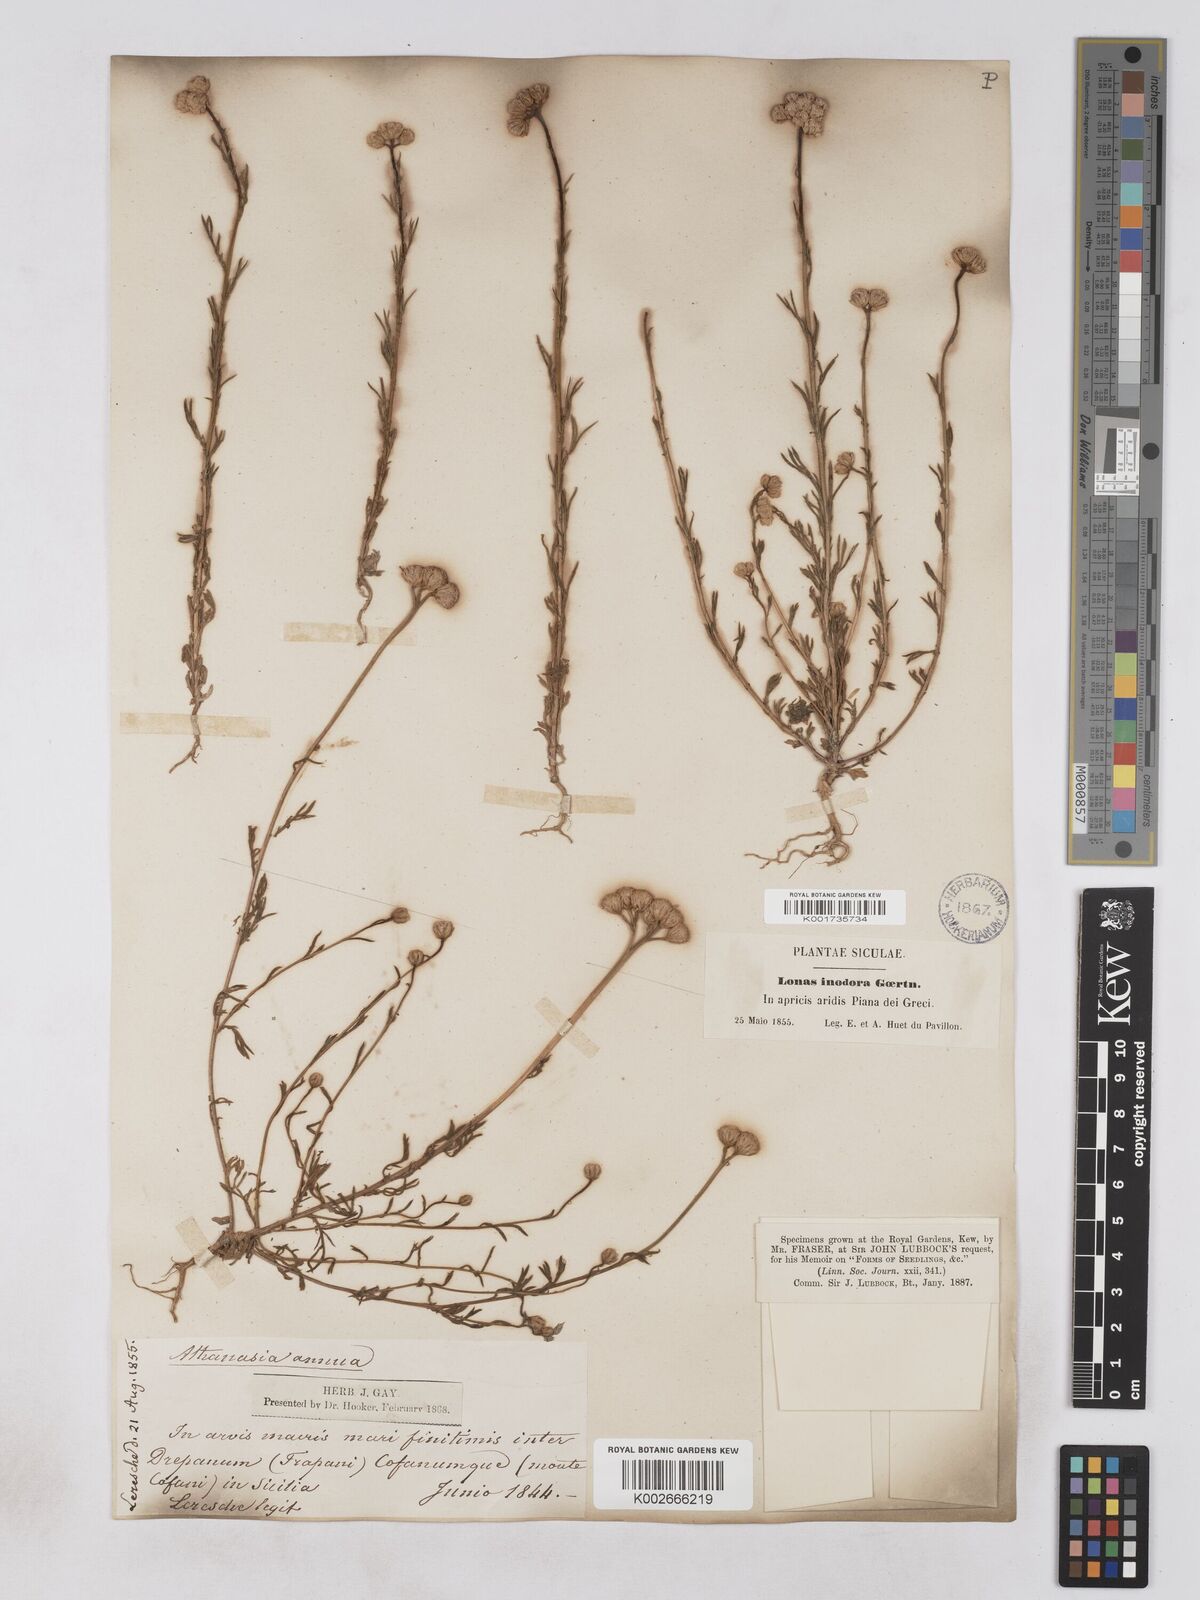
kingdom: Plantae
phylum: Tracheophyta
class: Magnoliopsida
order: Asterales
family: Asteraceae
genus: Lonas
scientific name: Lonas
